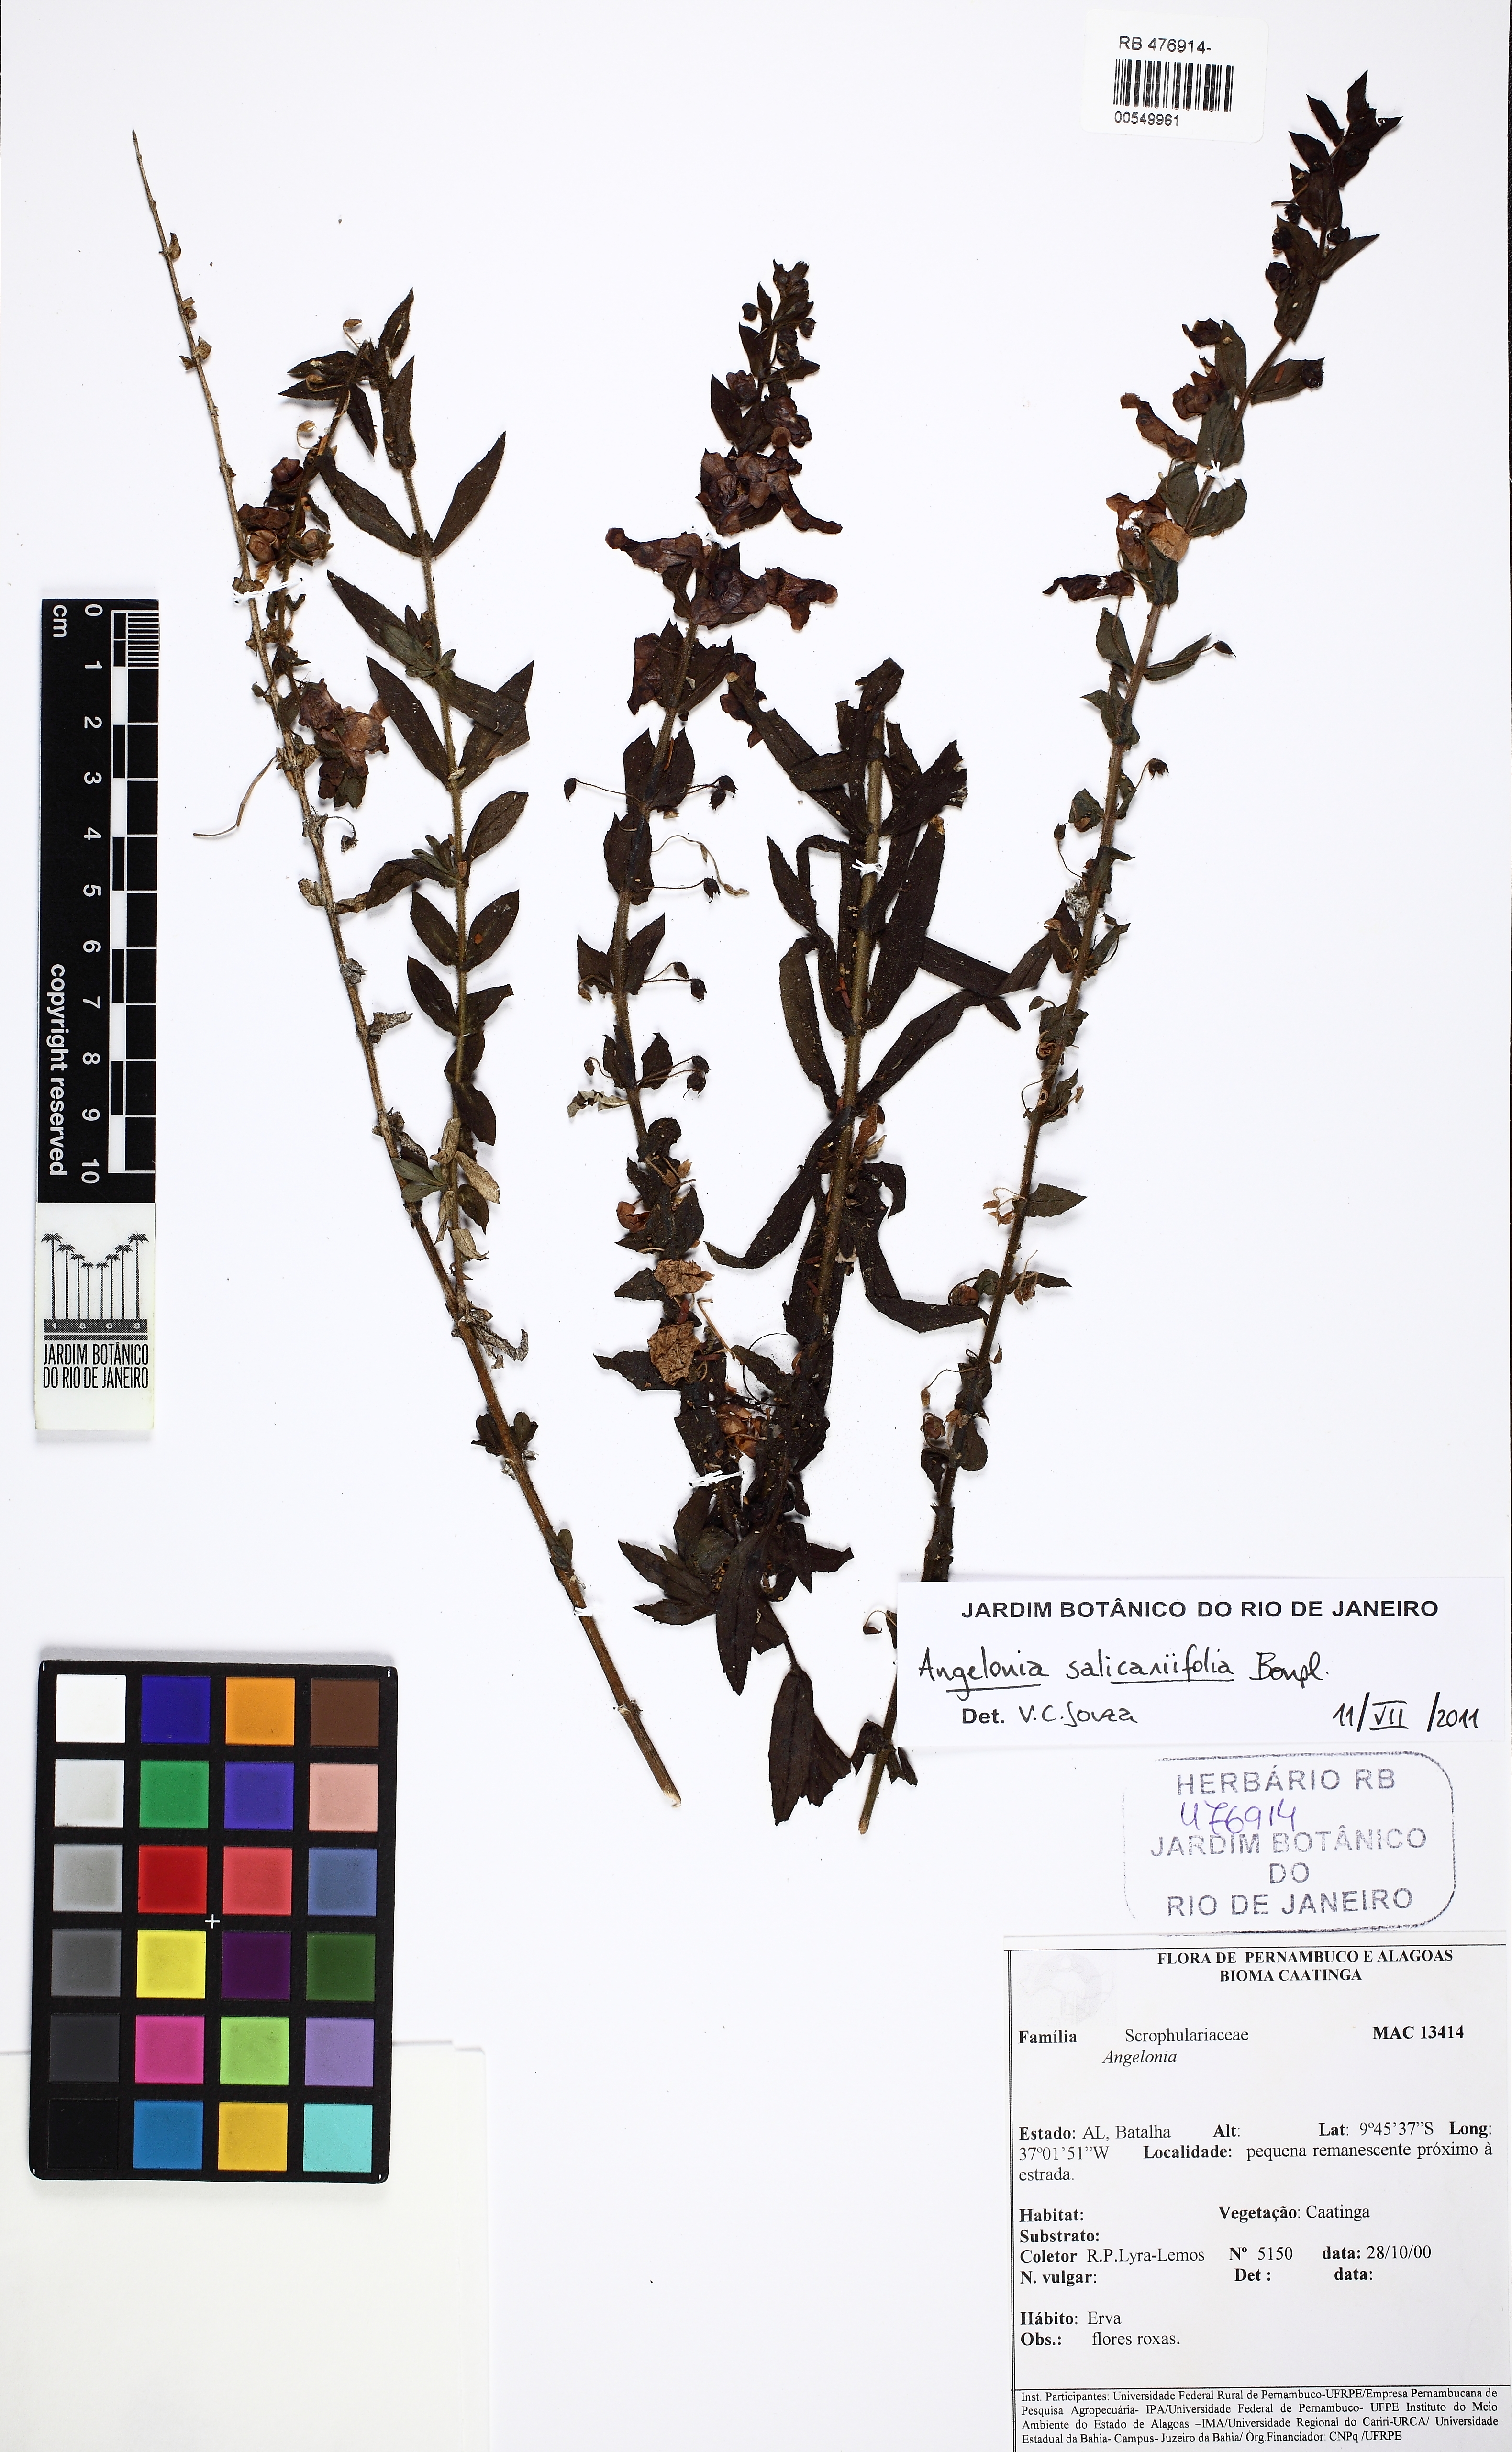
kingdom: Plantae
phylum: Tracheophyta
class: Magnoliopsida
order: Lamiales
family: Plantaginaceae
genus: Angelonia
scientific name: Angelonia salicariifolia
